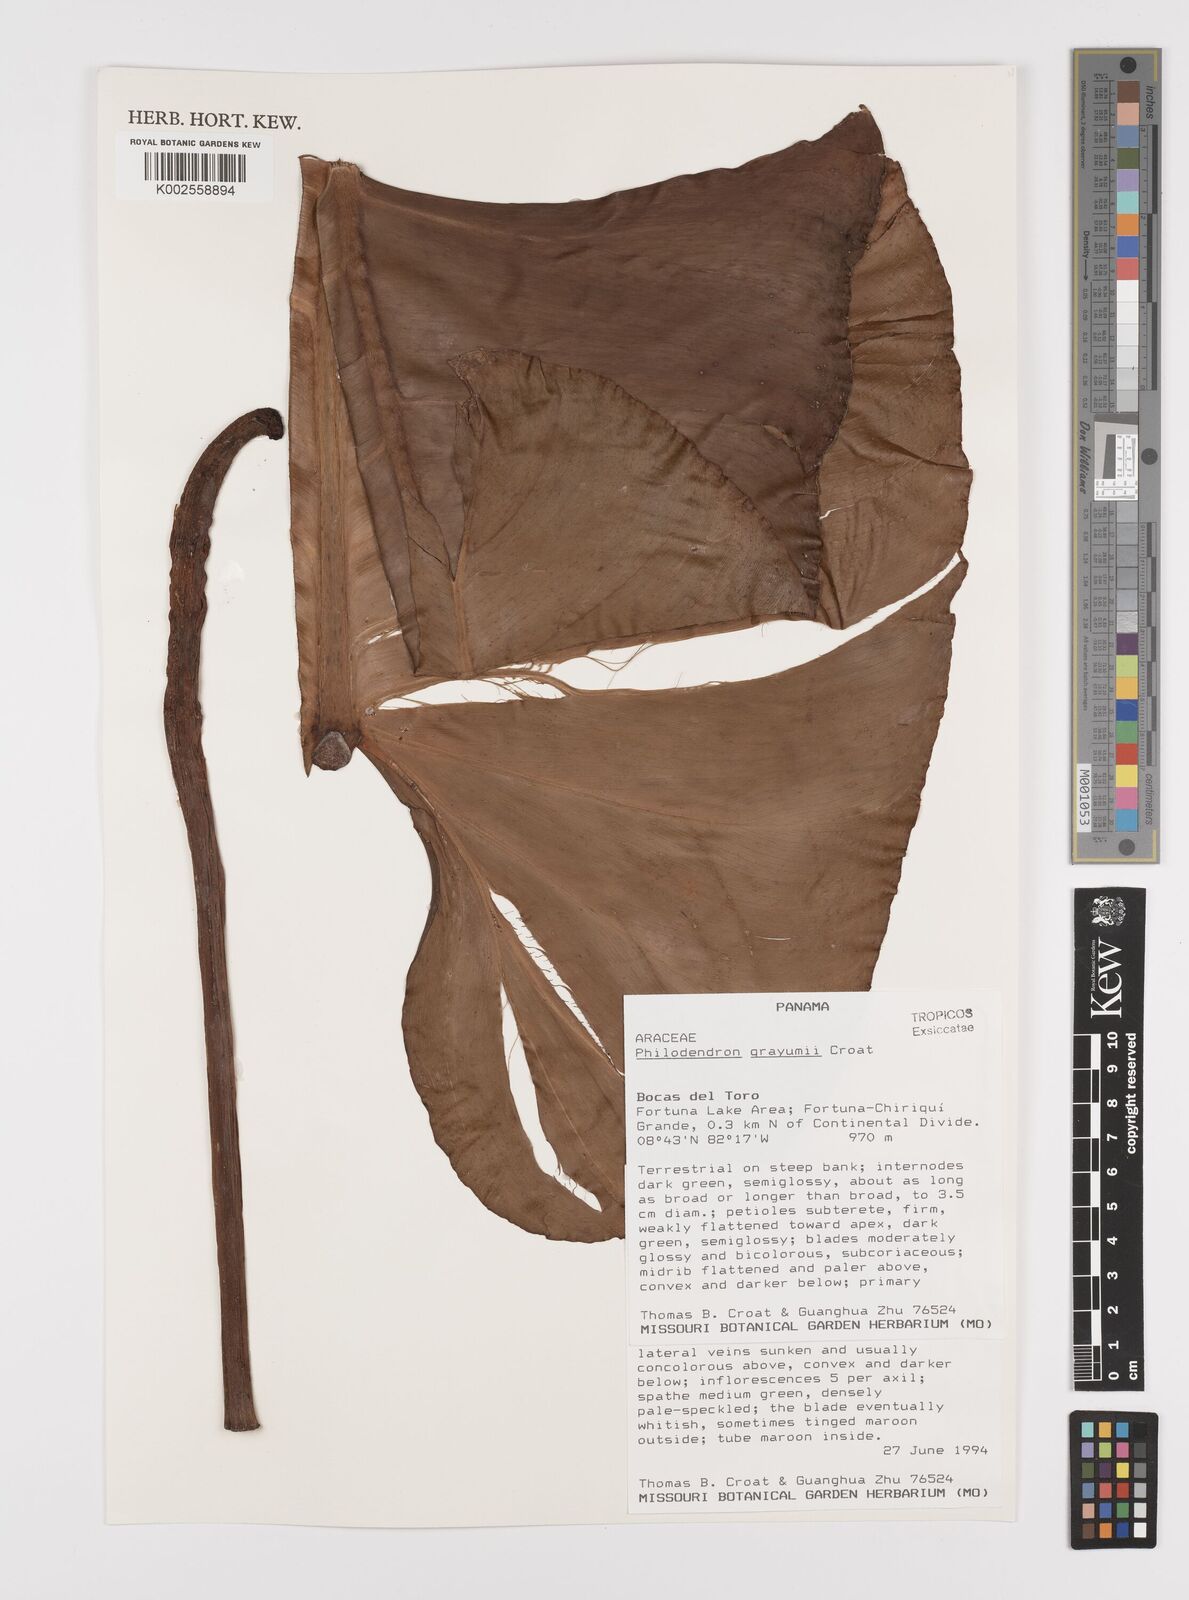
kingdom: Plantae
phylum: Tracheophyta
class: Liliopsida
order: Alismatales
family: Araceae
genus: Philodendron
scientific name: Philodendron grayumii
